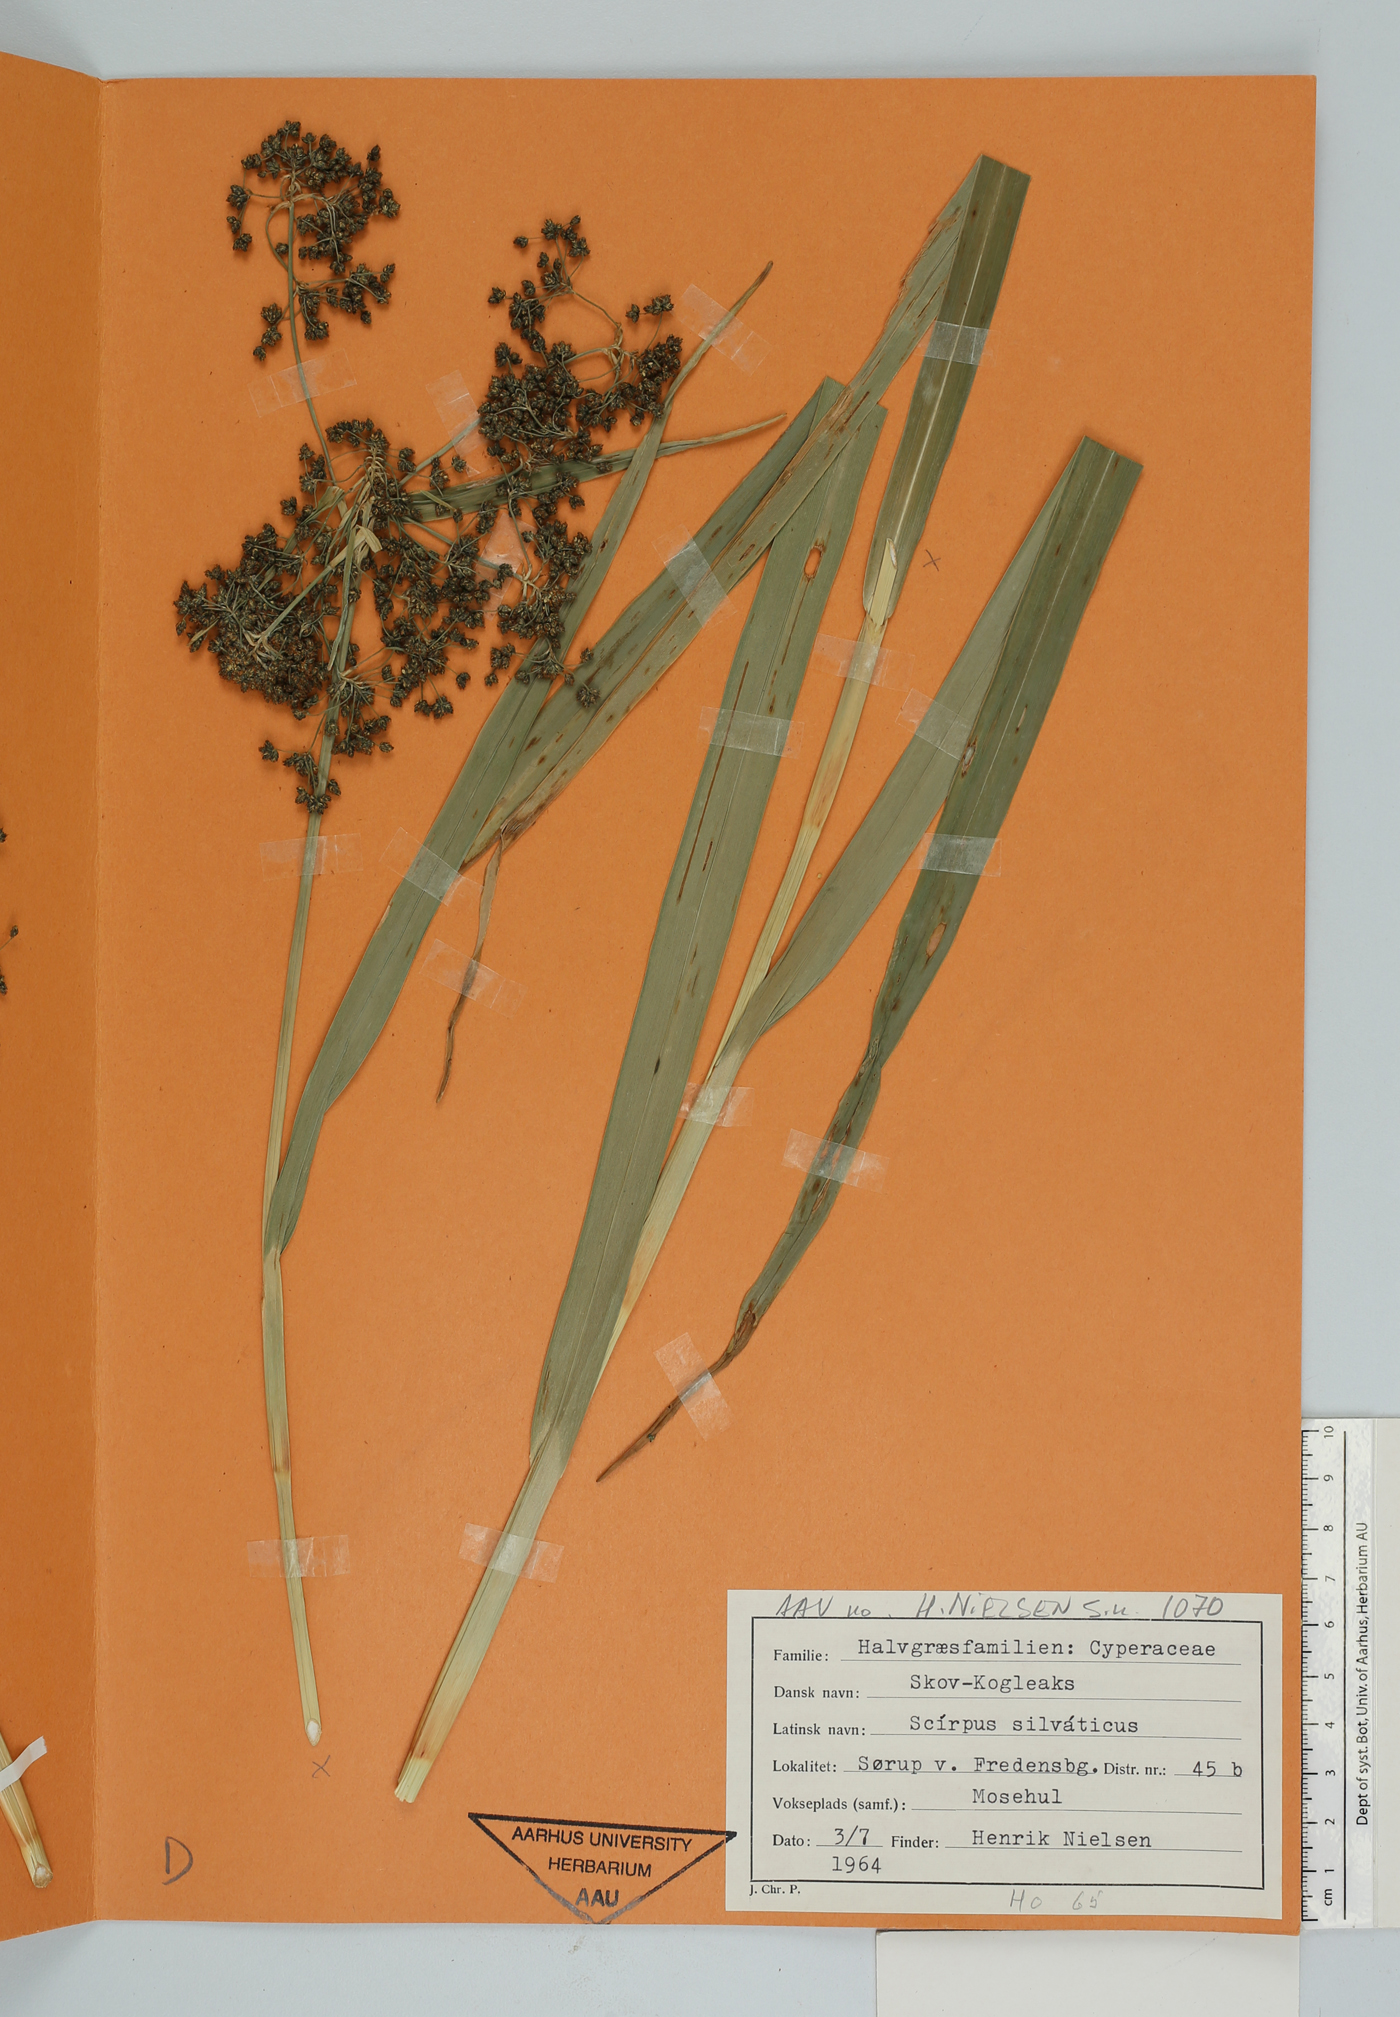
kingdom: Plantae
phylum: Tracheophyta
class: Liliopsida
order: Poales
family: Cyperaceae
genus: Scirpus
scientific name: Scirpus sylvaticus
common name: Wood club-rush
